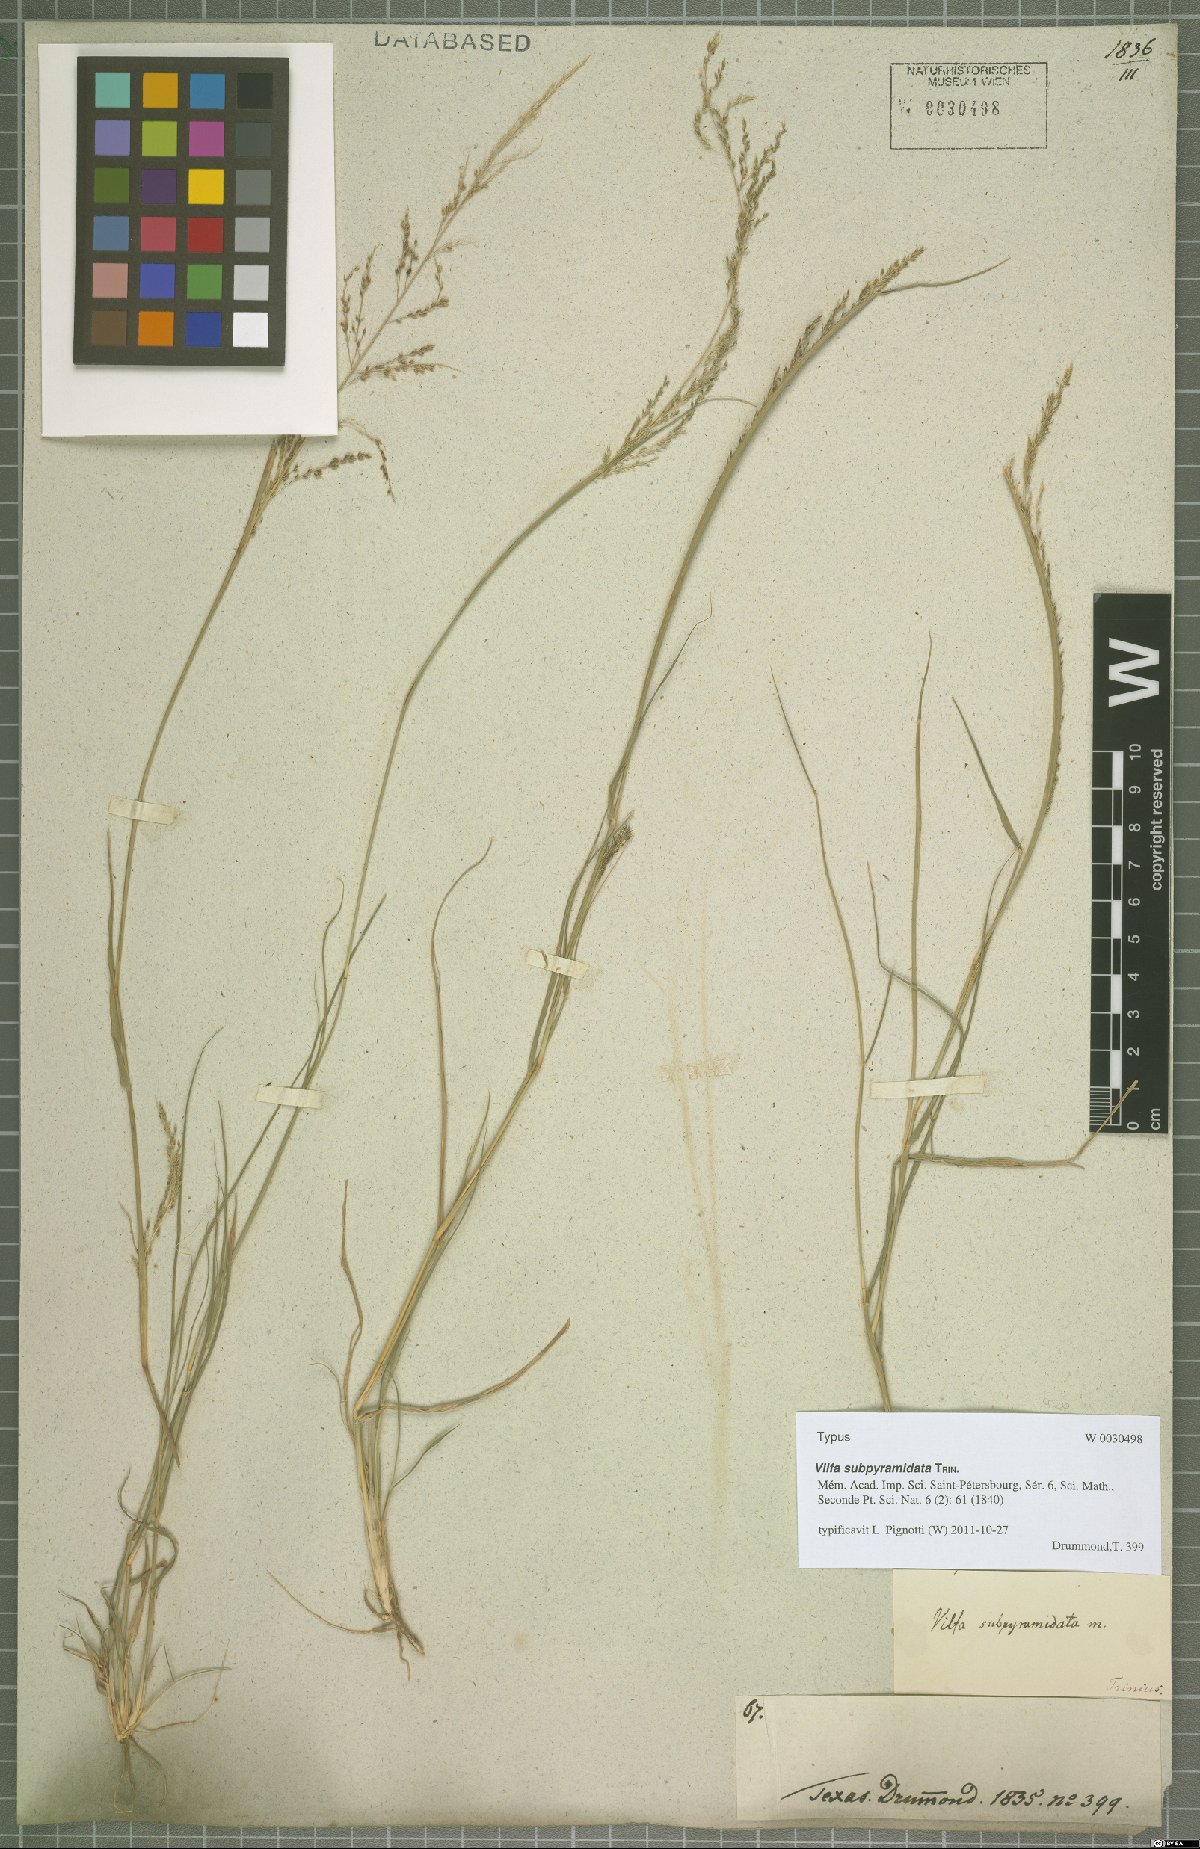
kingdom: Plantae
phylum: Tracheophyta
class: Liliopsida
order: Poales
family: Poaceae
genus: Sporobolus
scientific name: Sporobolus pyramidatus
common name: Whorled dropseed
